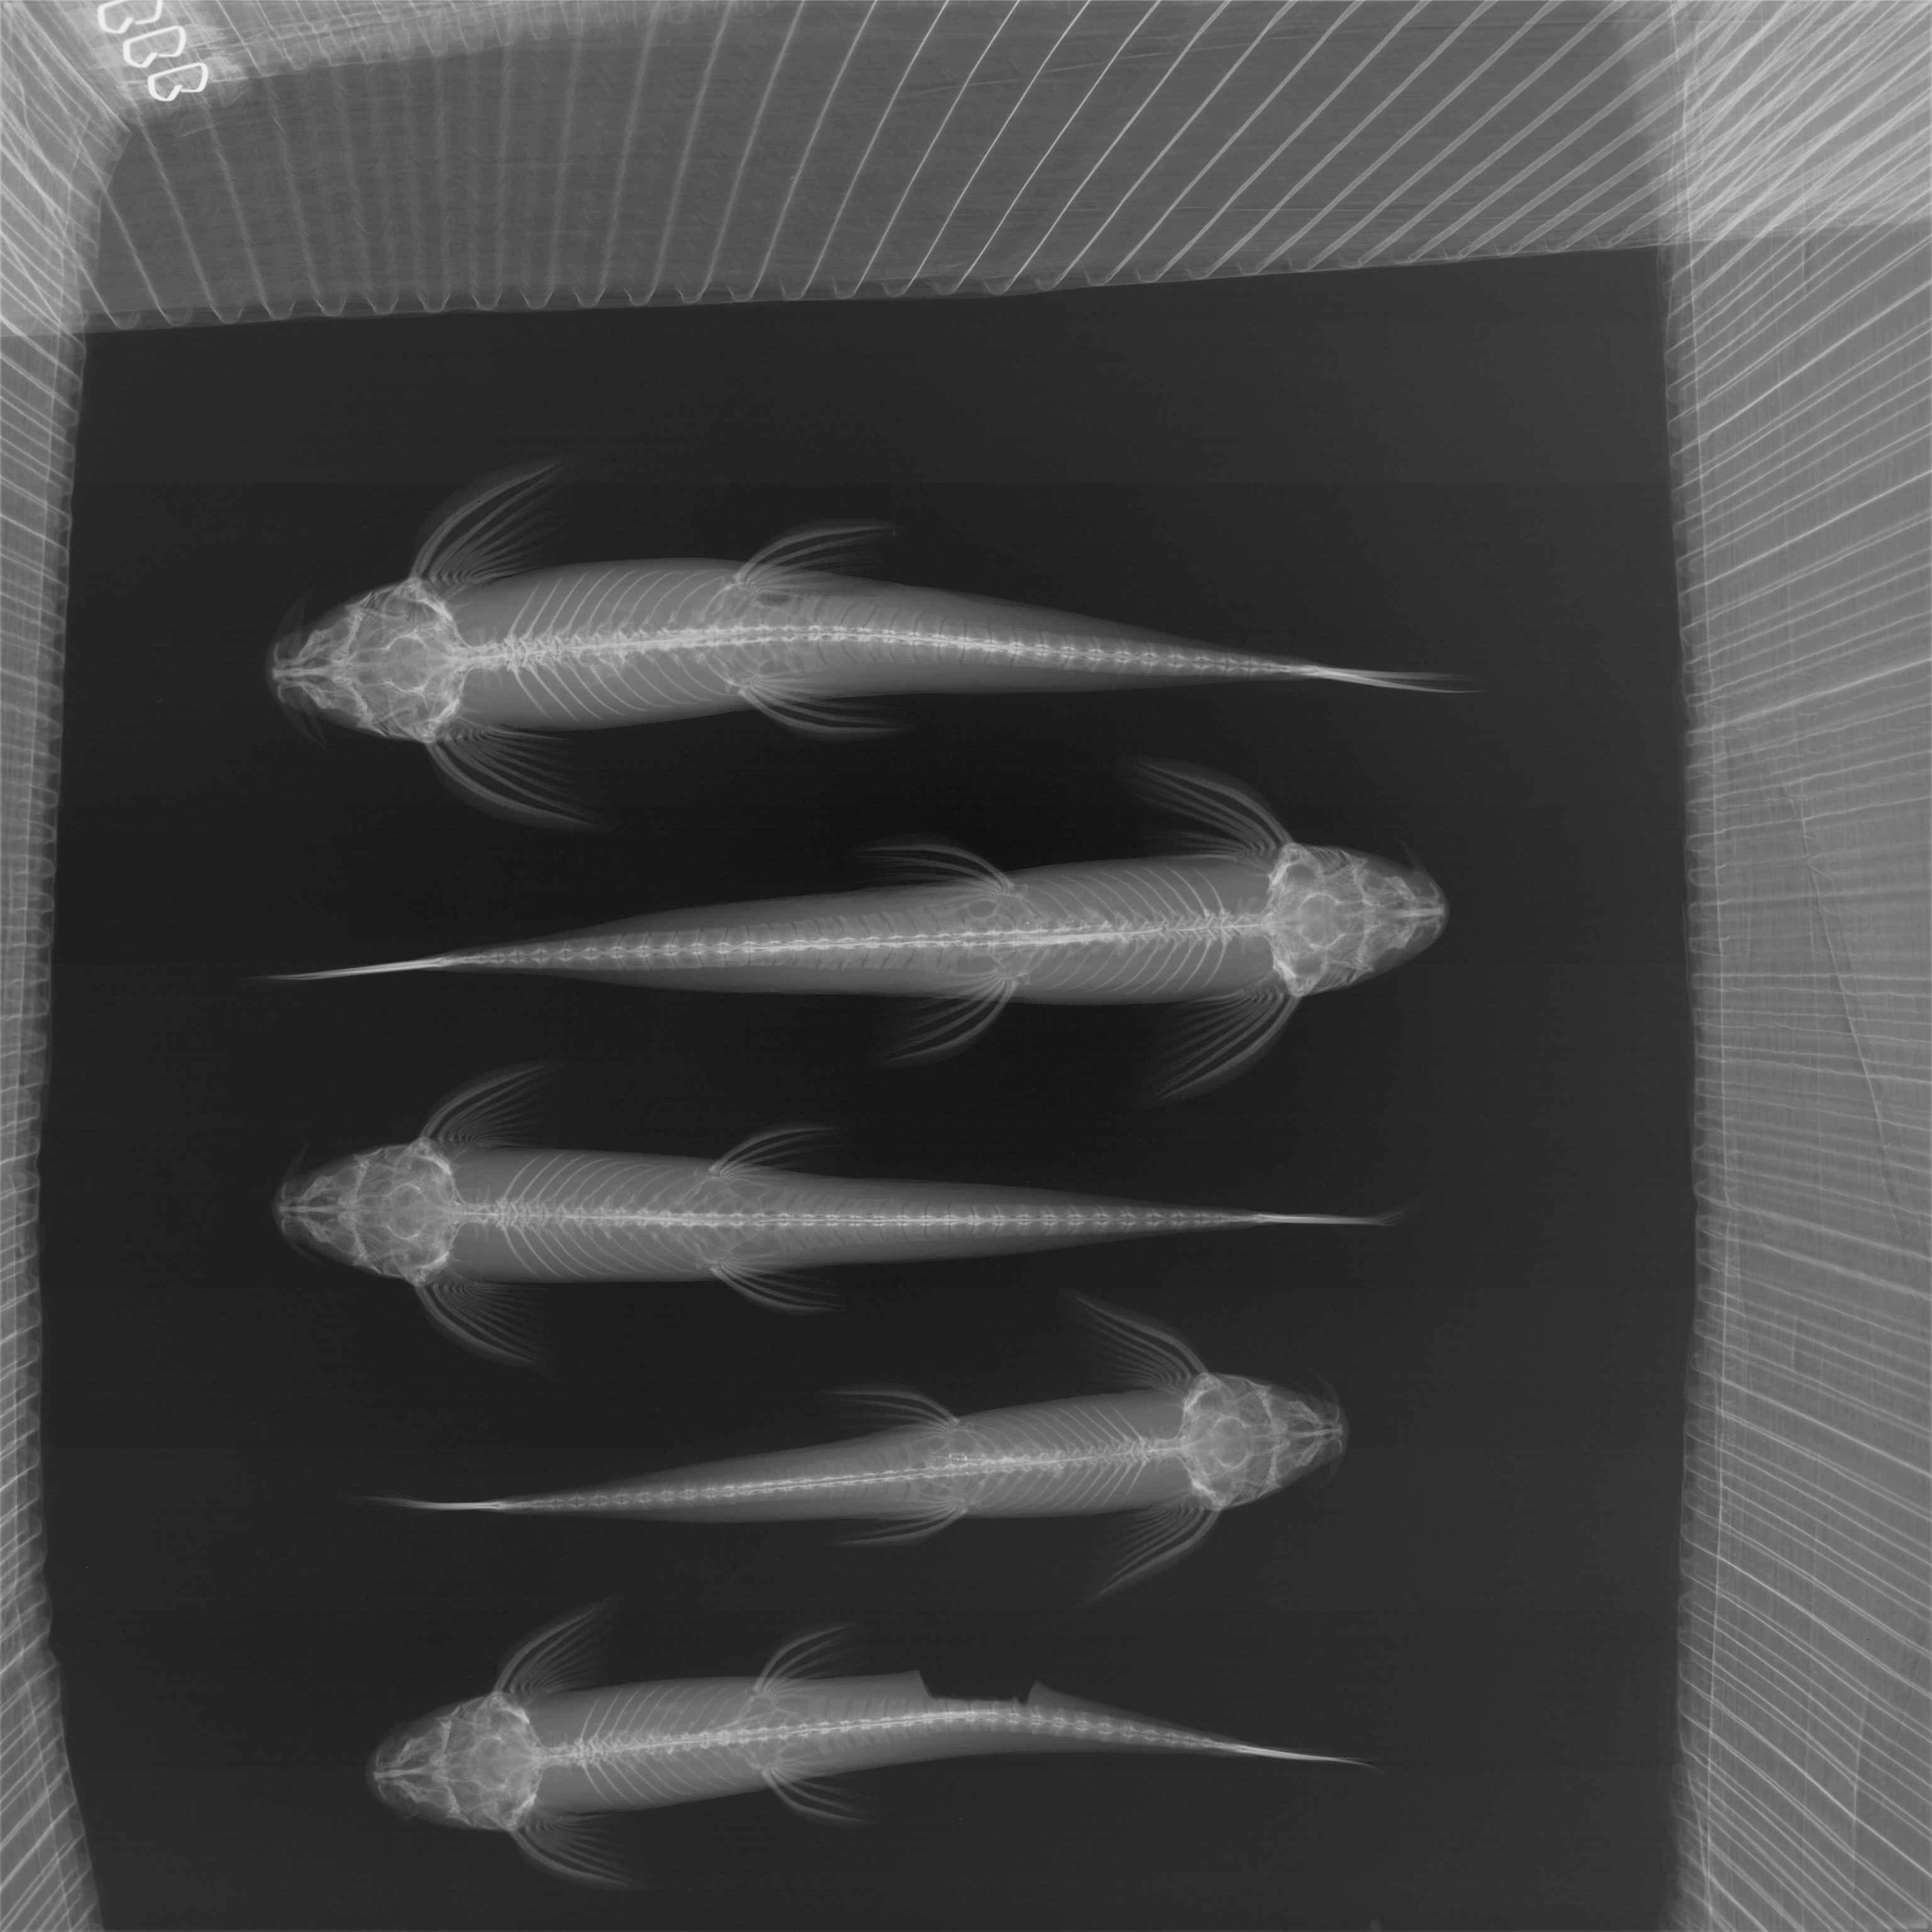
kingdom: Animalia
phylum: Chordata
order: Siluriformes
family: Amphiliidae
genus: Doumea
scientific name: Doumea
